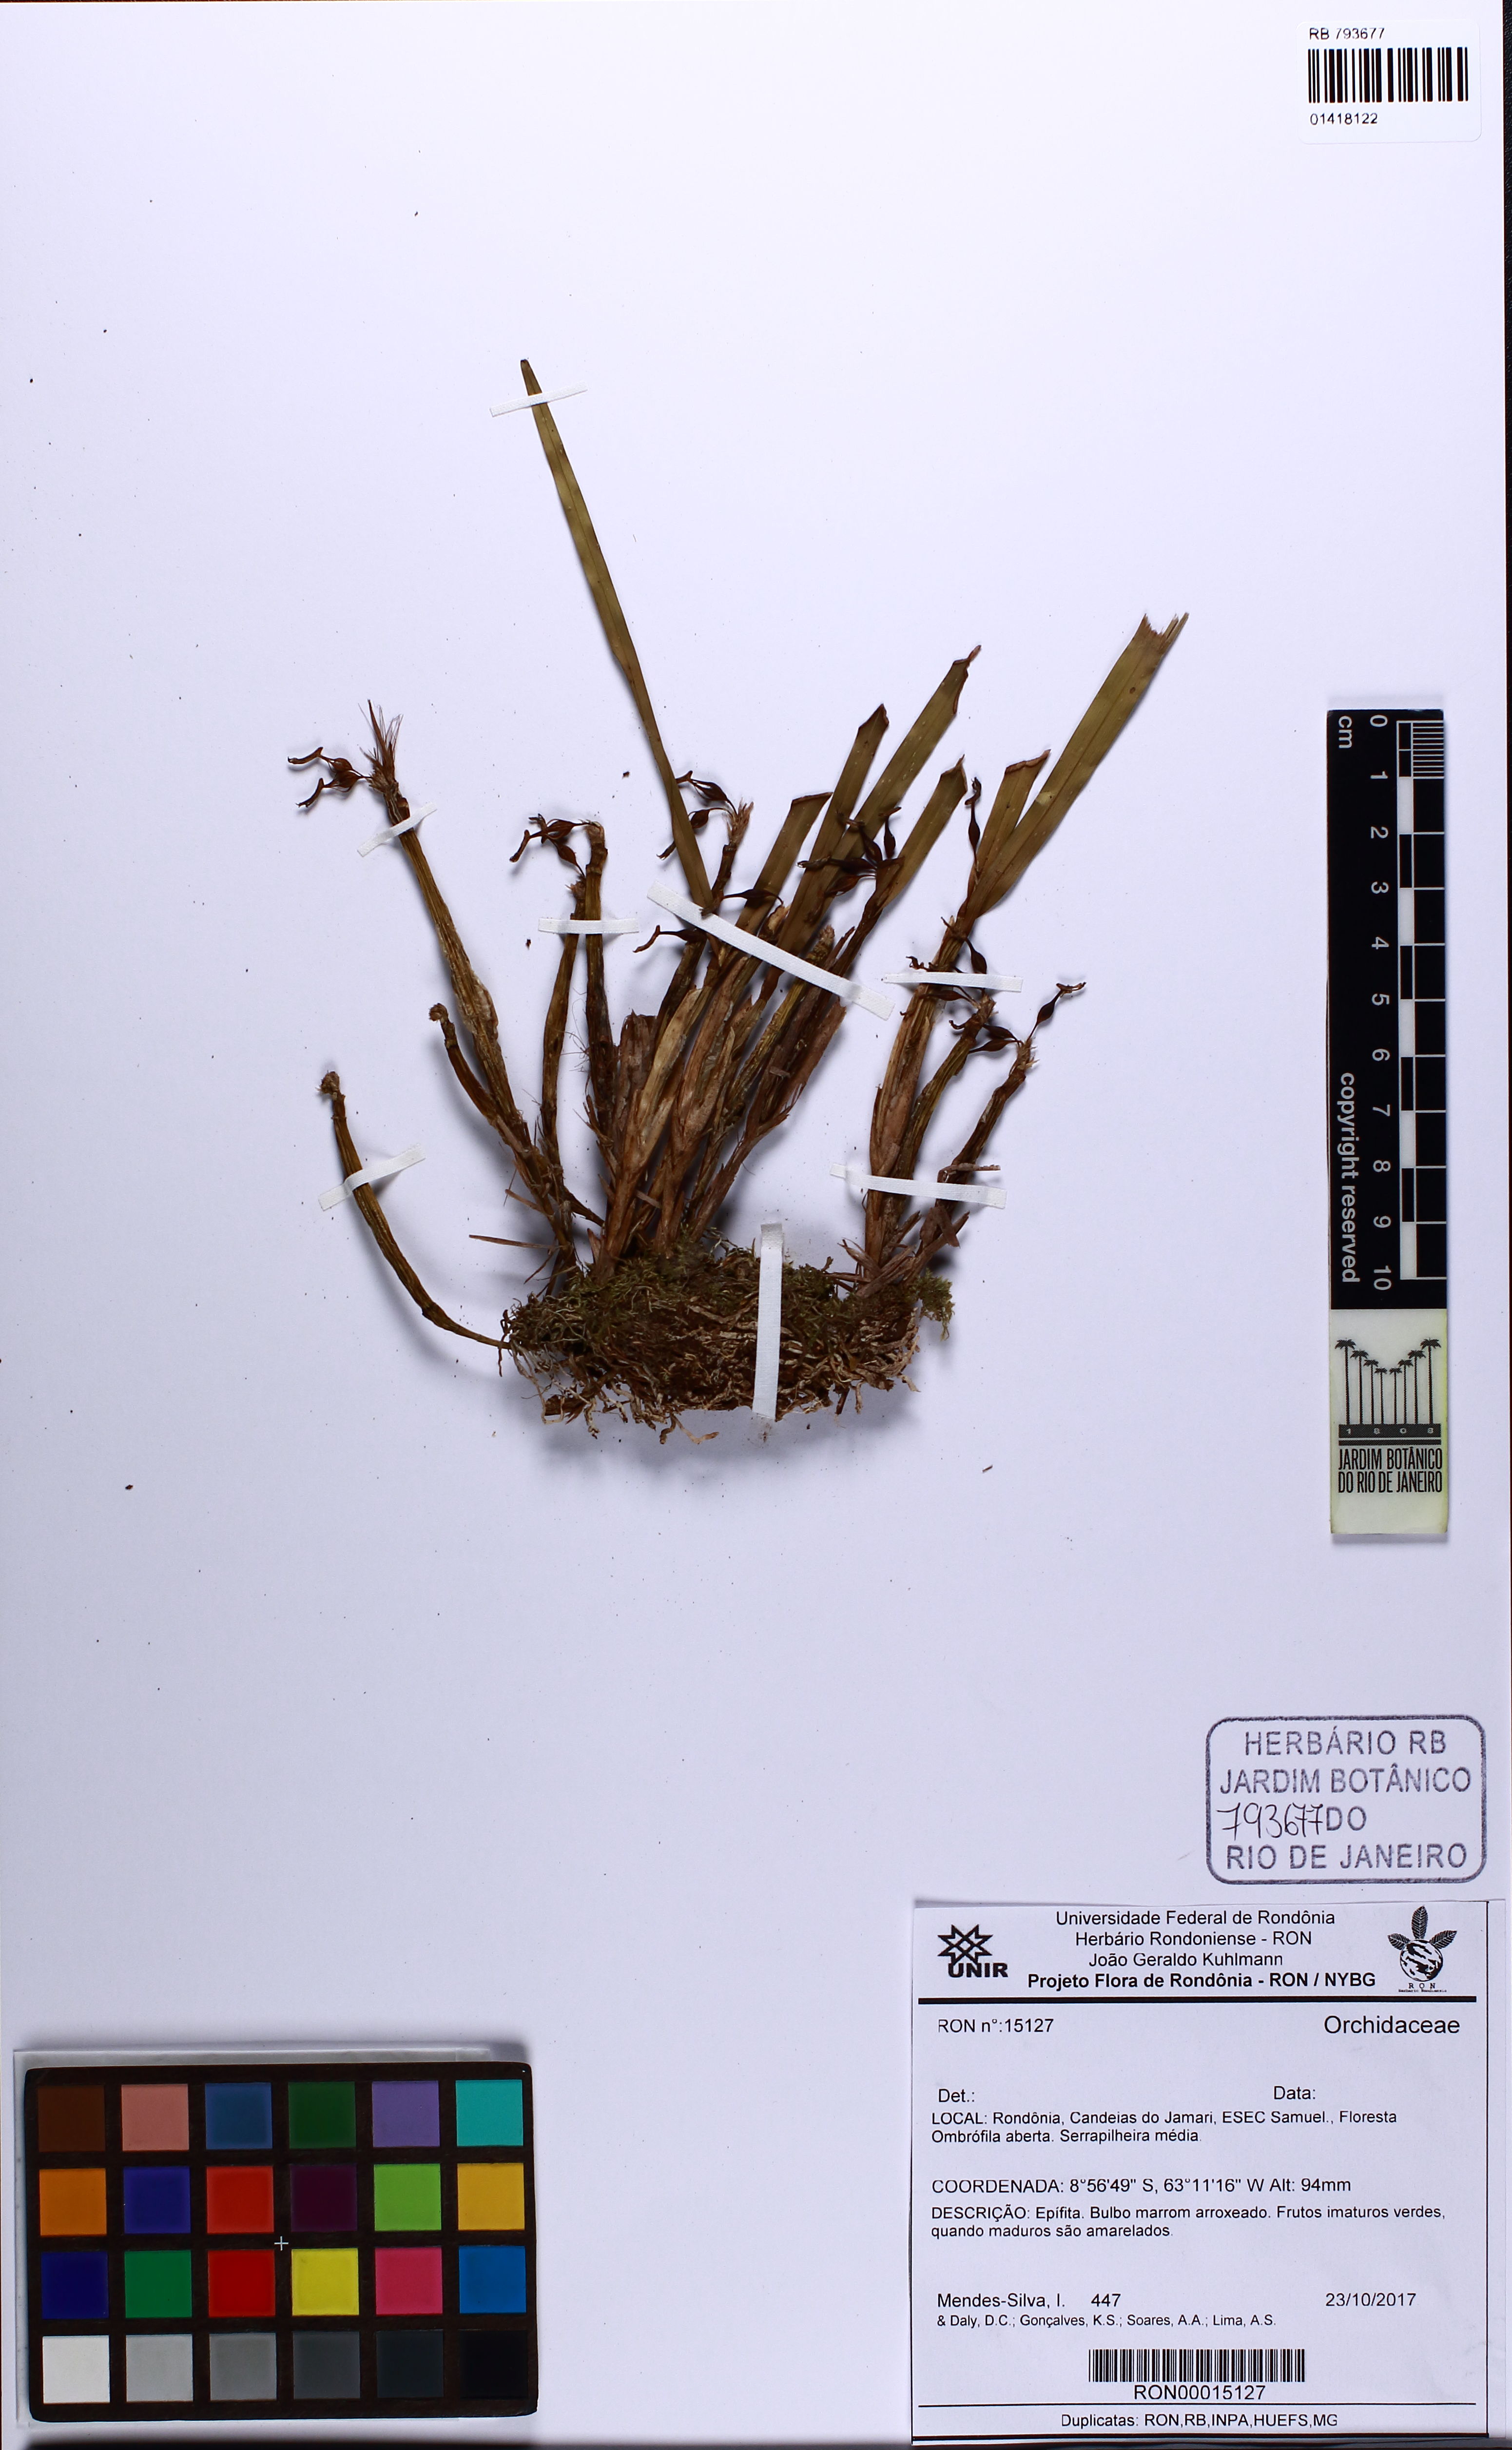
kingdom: Plantae
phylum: Tracheophyta
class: Liliopsida
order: Asparagales
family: Orchidaceae
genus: Scaphyglottis
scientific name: Scaphyglottis
